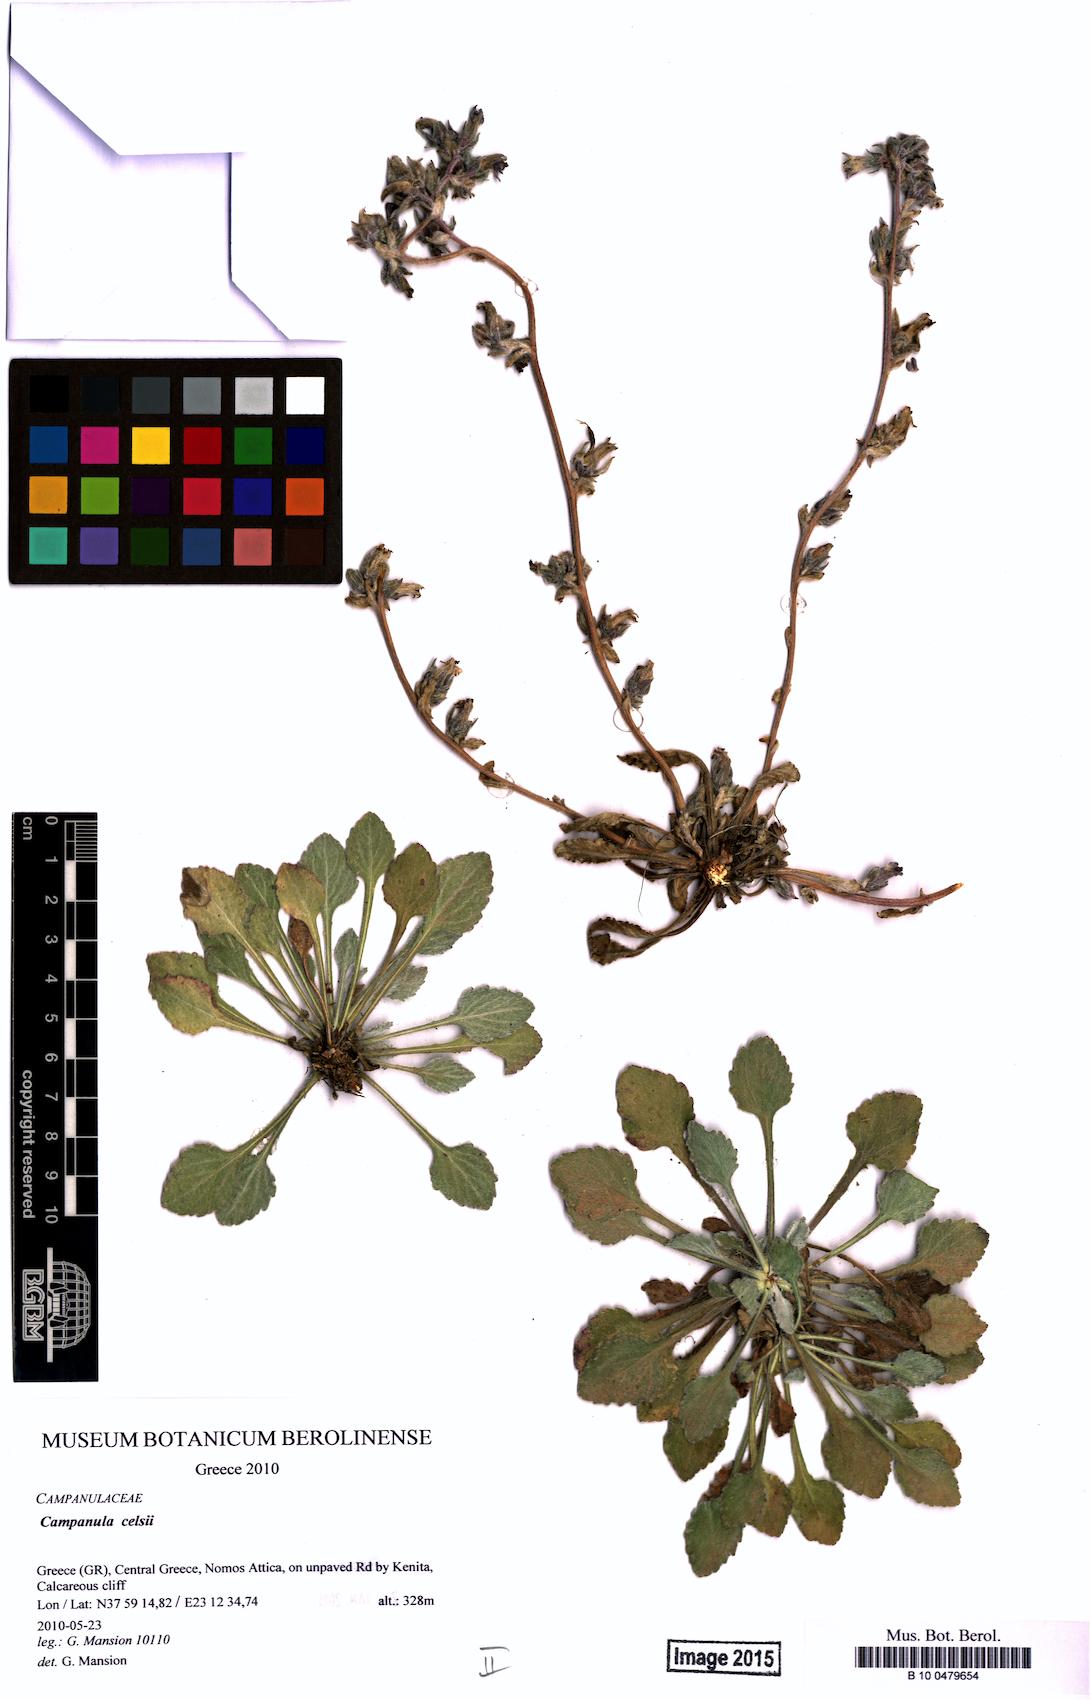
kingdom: Plantae
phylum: Tracheophyta
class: Magnoliopsida
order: Asterales
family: Campanulaceae
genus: Campanula
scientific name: Campanula celsii
